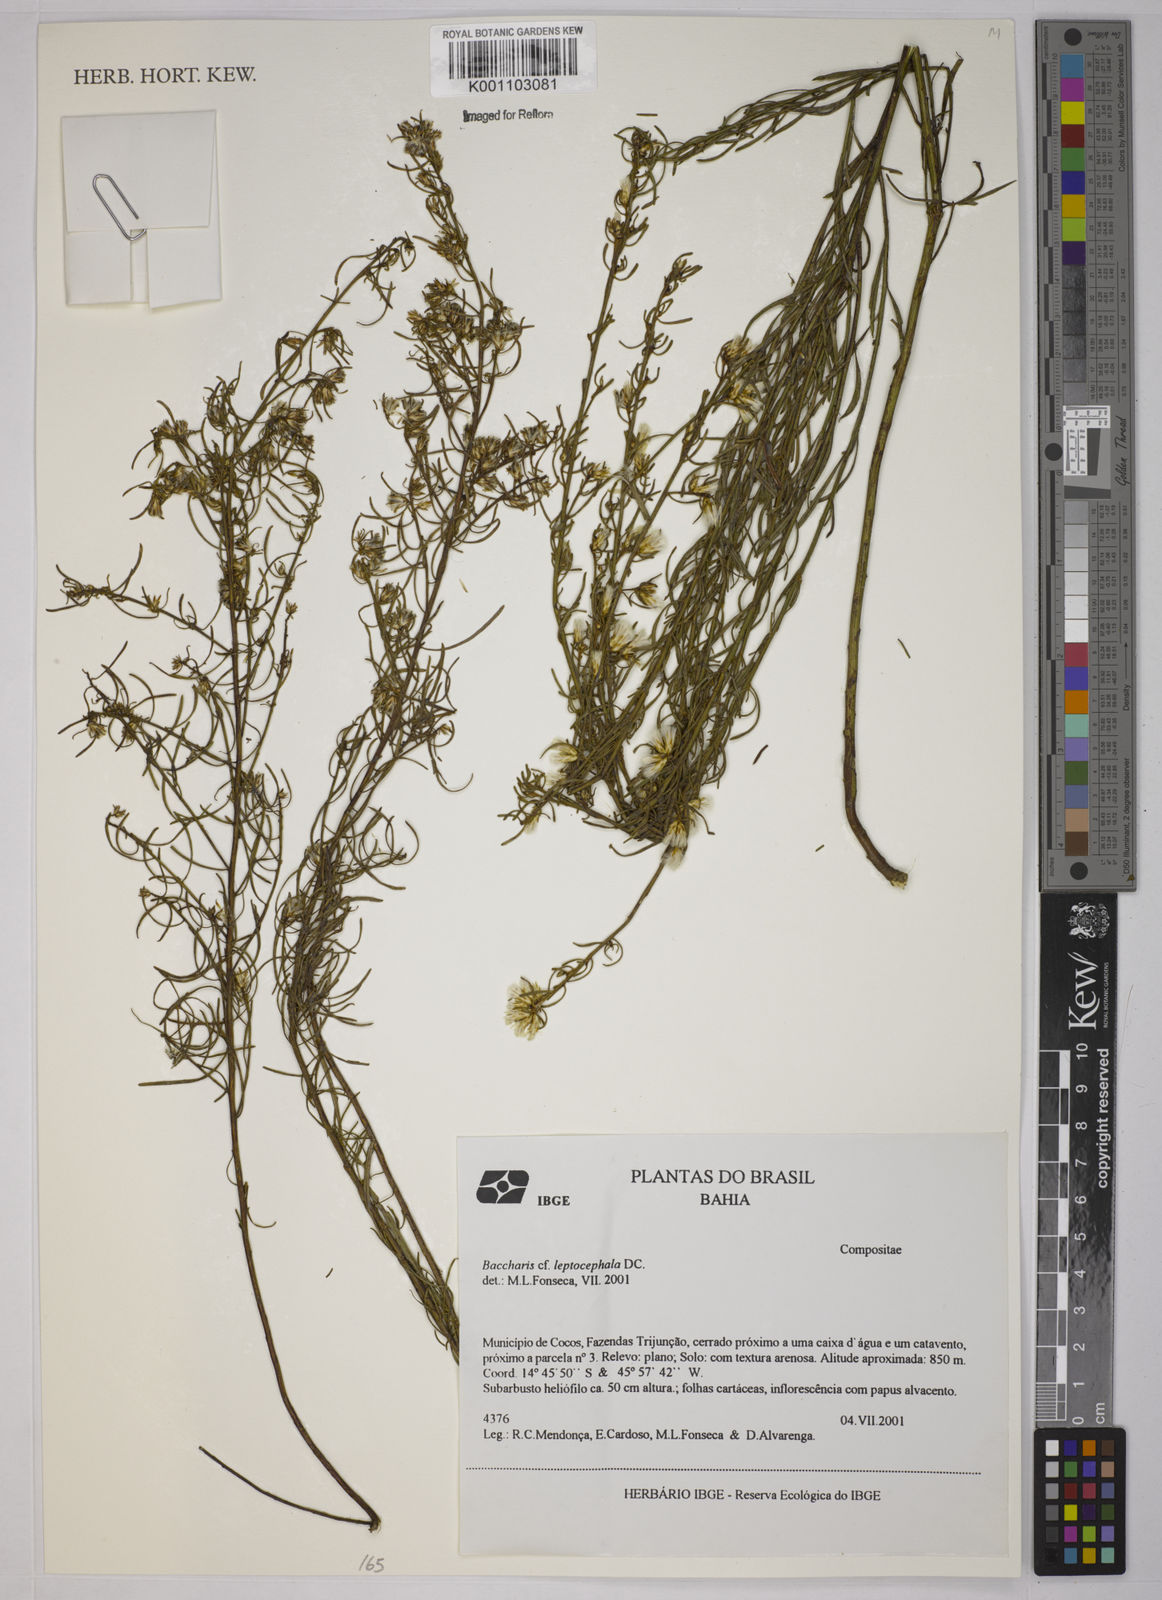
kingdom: Plantae
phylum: Tracheophyta
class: Magnoliopsida
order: Asterales
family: Asteraceae
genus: Baccharis
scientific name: Baccharis leptocephala
